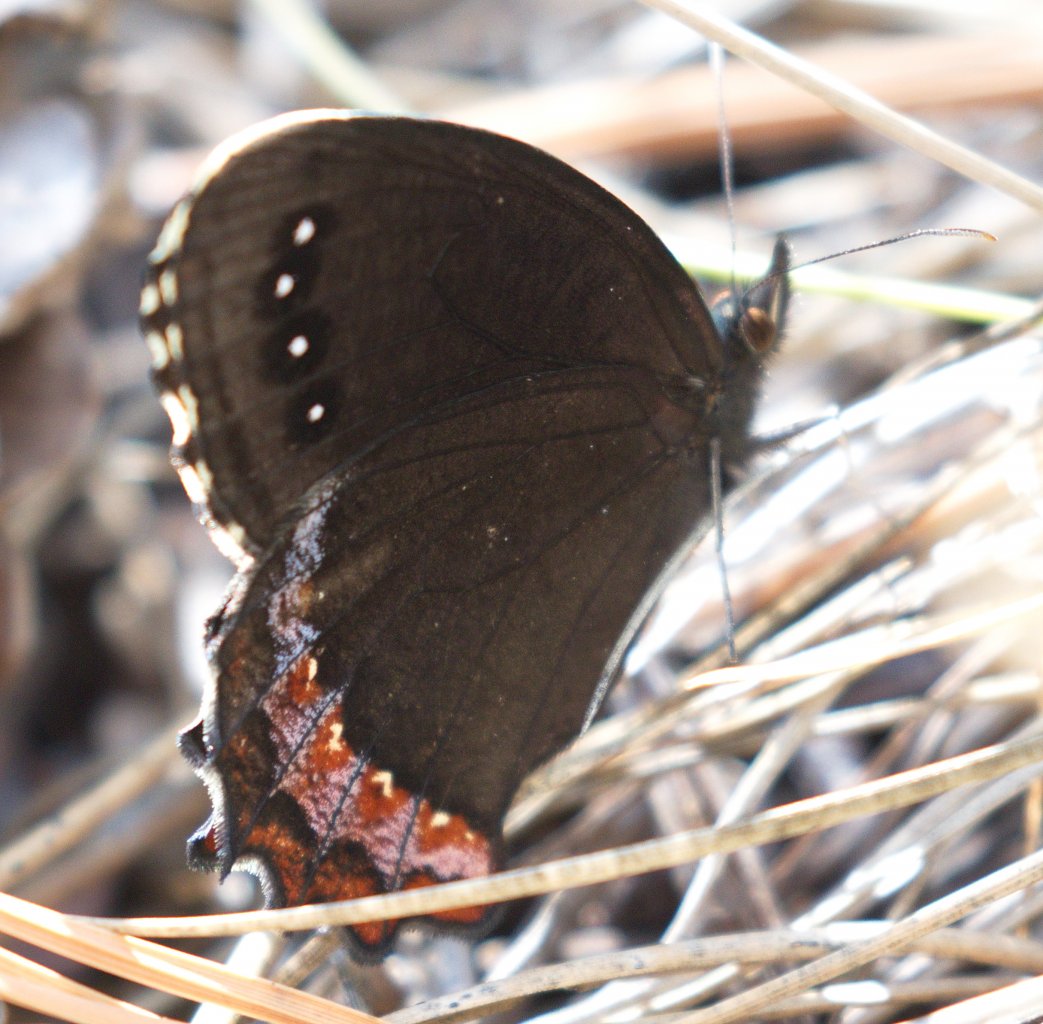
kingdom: Animalia
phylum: Arthropoda
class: Insecta
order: Lepidoptera
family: Nymphalidae
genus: Gyrocheilus
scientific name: Gyrocheilus patrobas
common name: Red-bordered Satyr
